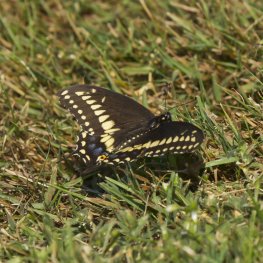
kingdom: Animalia
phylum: Arthropoda
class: Insecta
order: Lepidoptera
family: Papilionidae
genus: Papilio
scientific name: Papilio polyxenes
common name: Black Swallowtail
